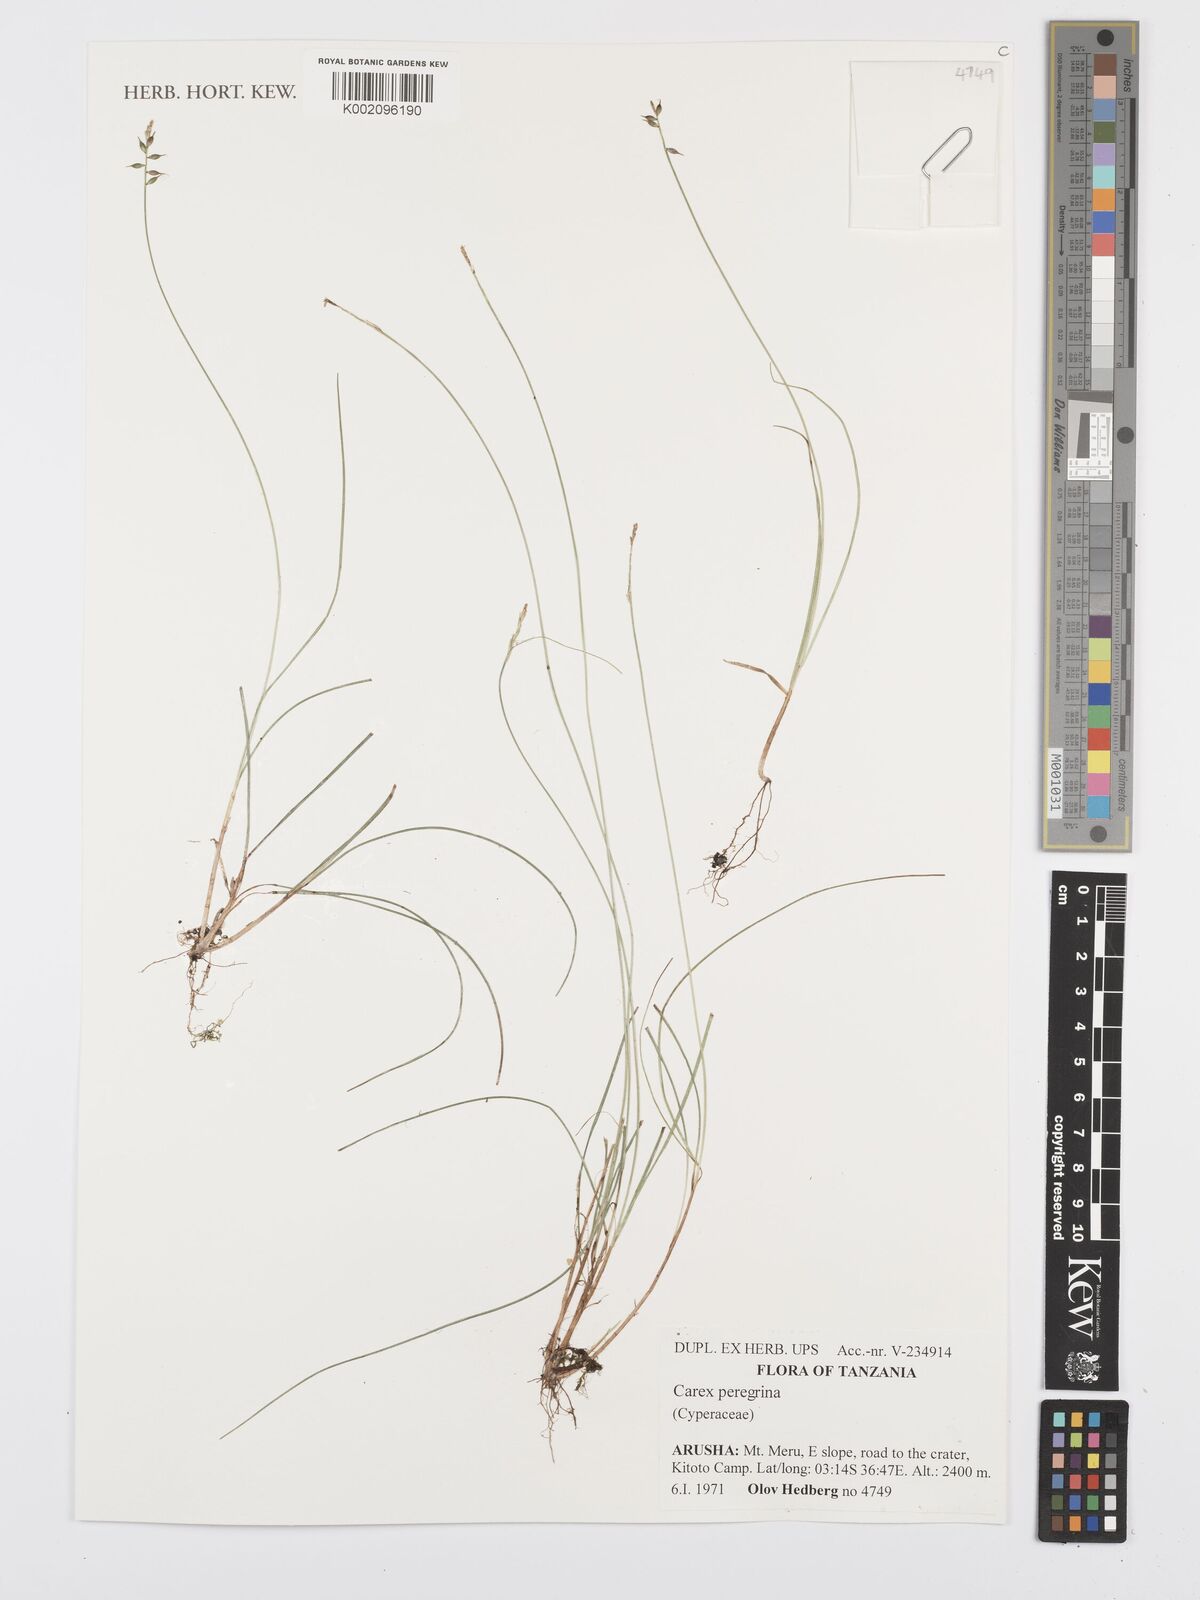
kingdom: Plantae
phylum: Tracheophyta
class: Liliopsida
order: Poales
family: Cyperaceae
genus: Carex
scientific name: Carex peregrina
